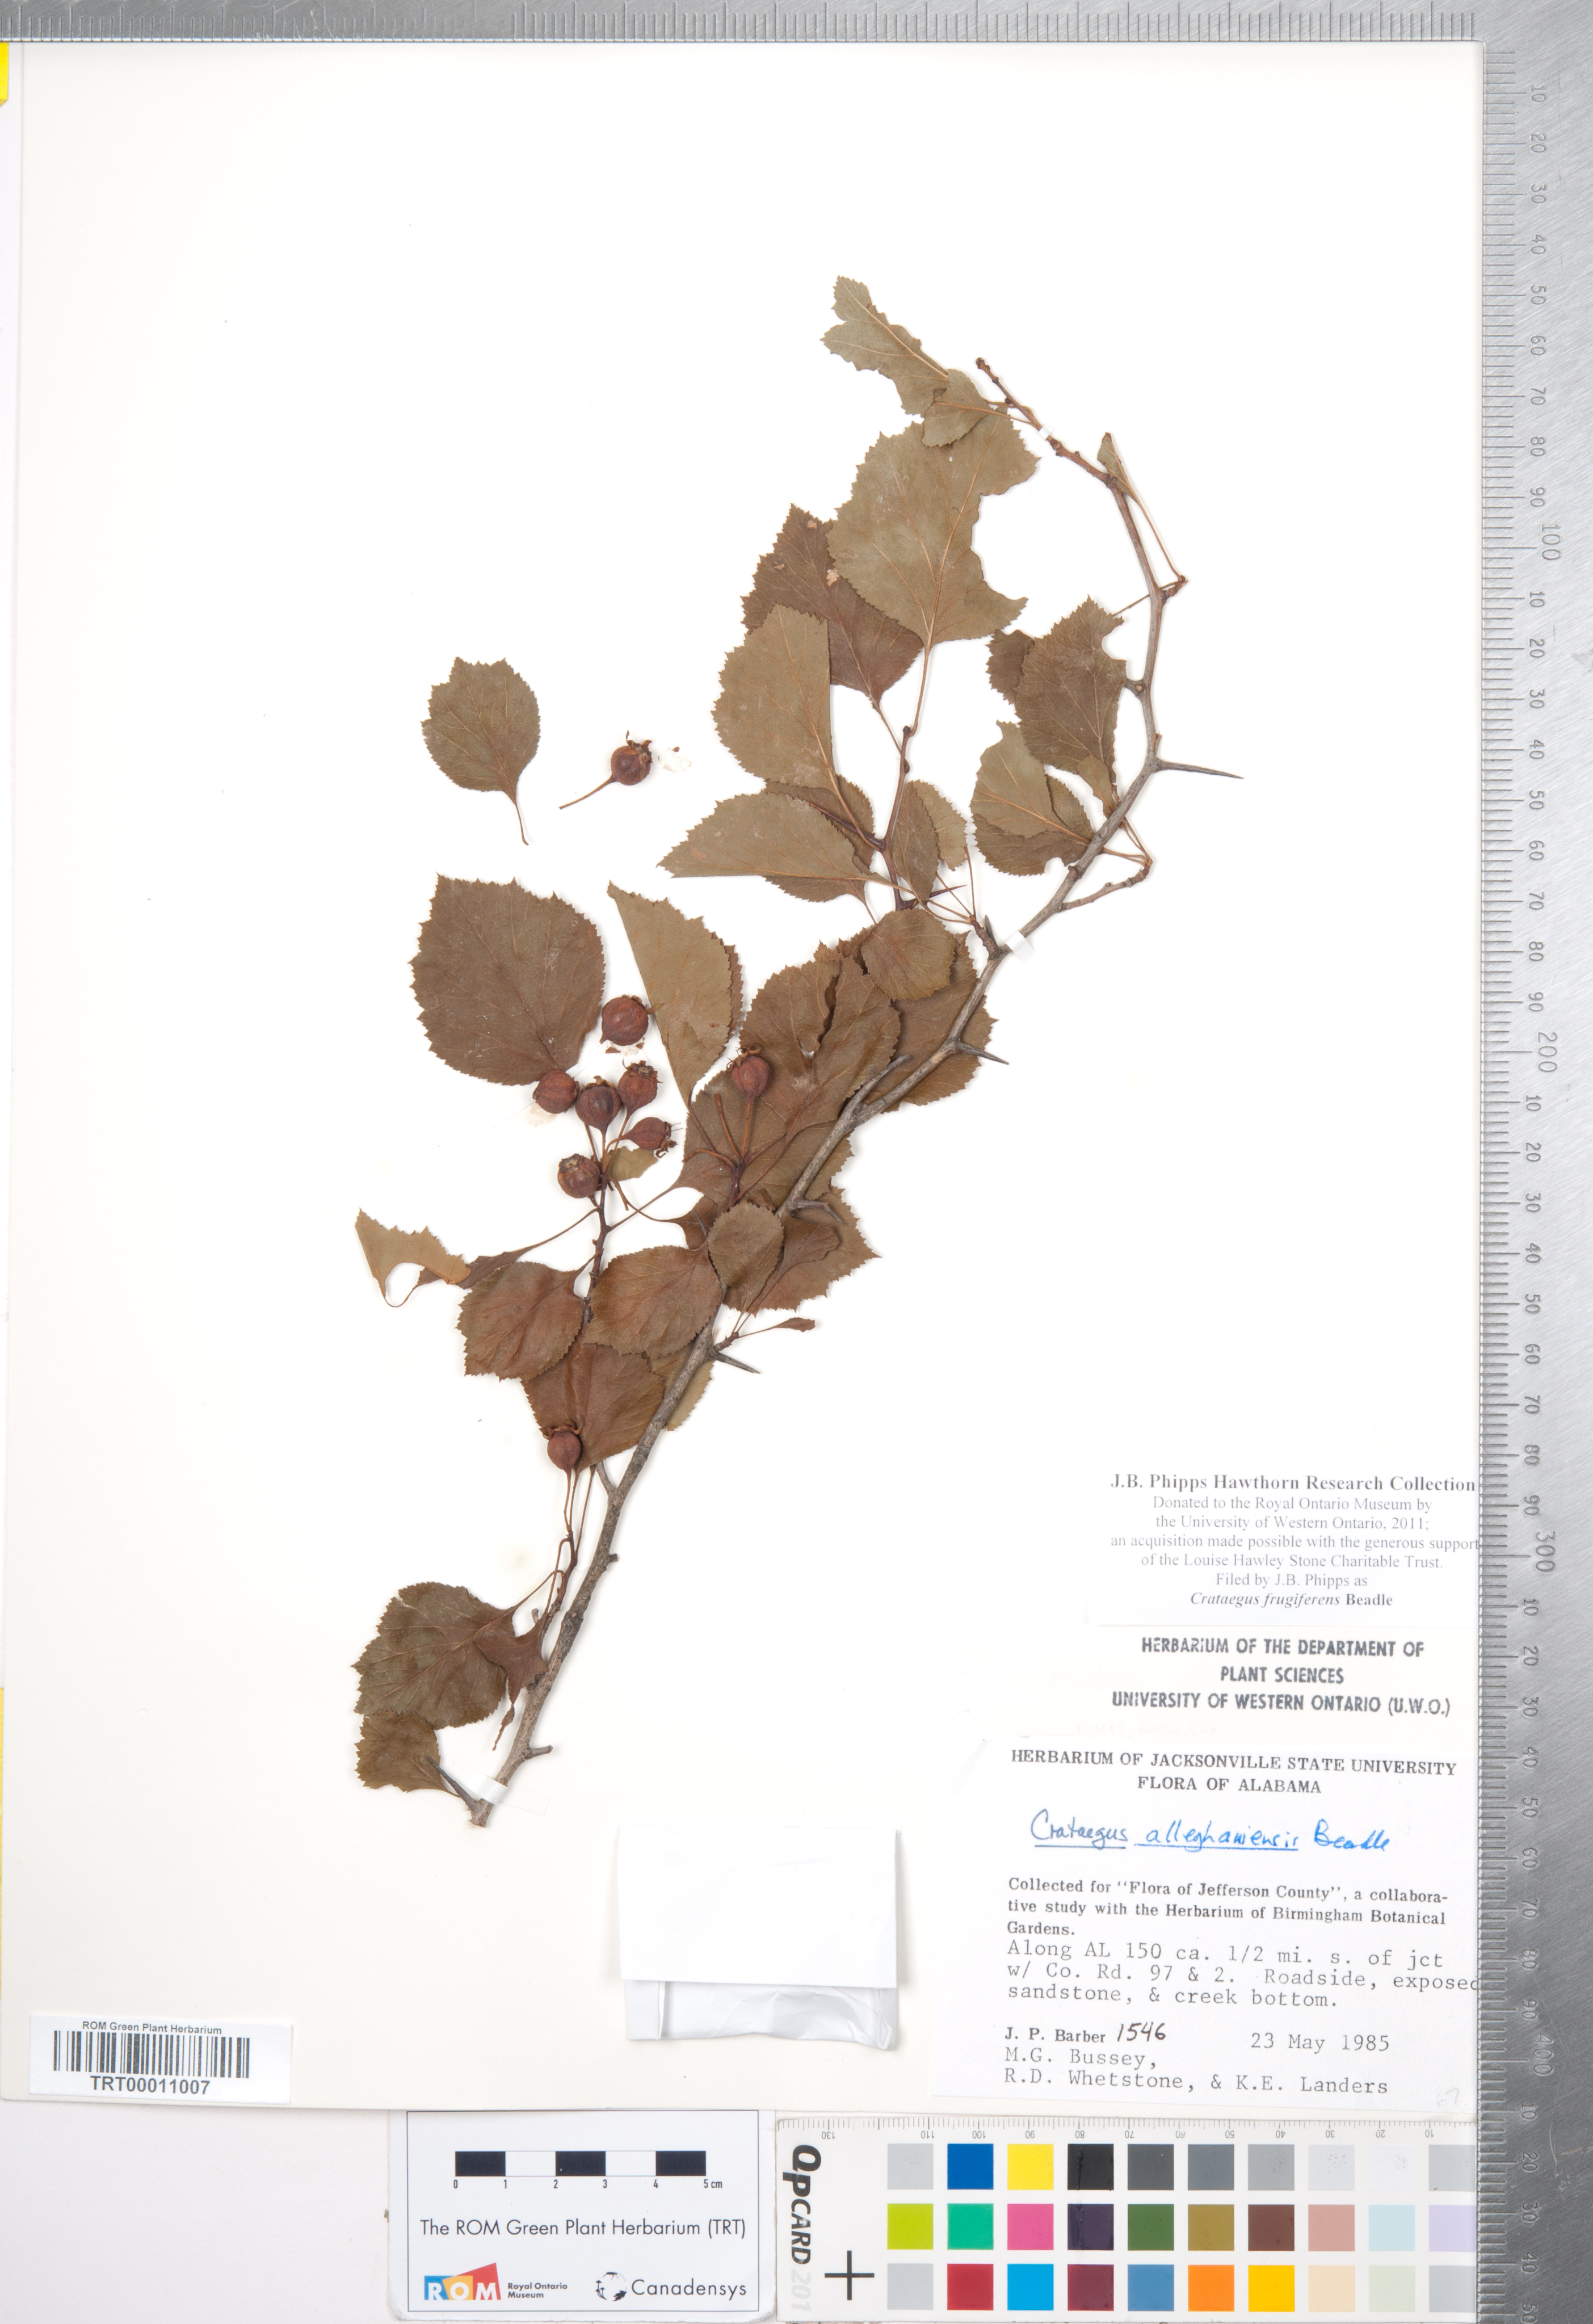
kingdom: Plantae
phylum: Tracheophyta
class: Magnoliopsida
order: Rosales
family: Rosaceae
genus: Crataegus
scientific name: Crataegus alleghaniensis
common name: Allegheny hawthorn
